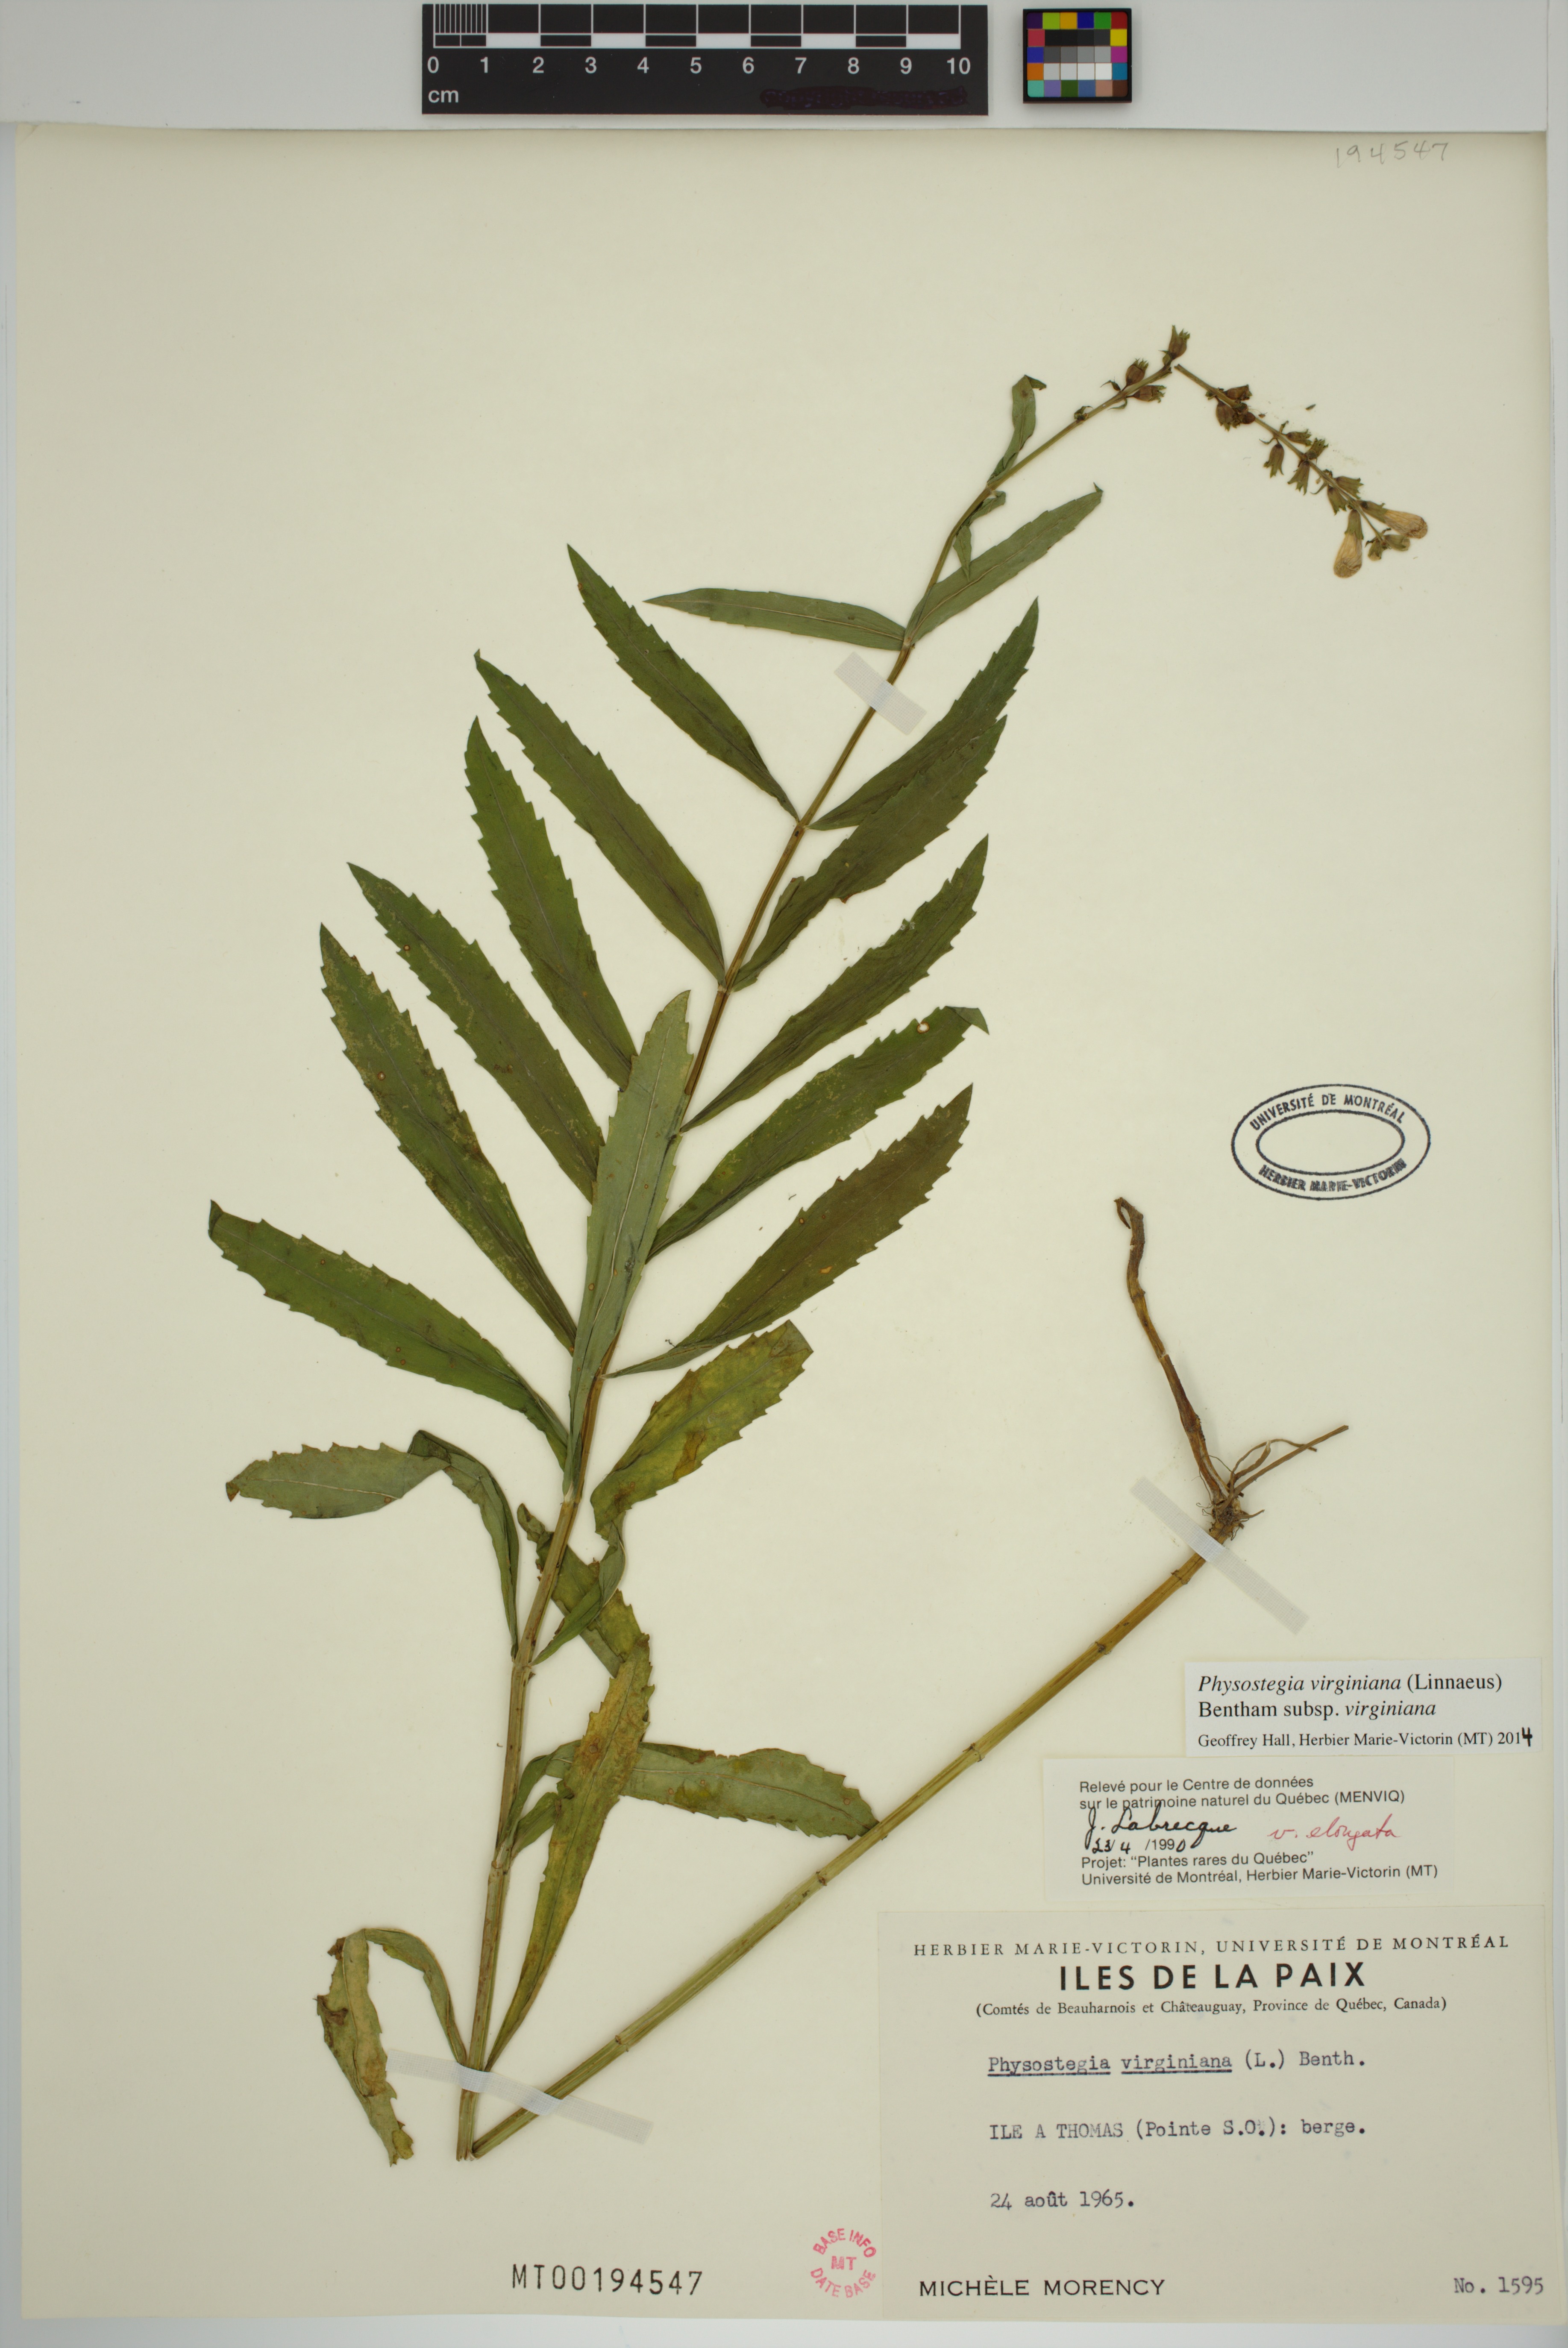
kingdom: Plantae
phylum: Tracheophyta
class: Magnoliopsida
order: Lamiales
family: Lamiaceae
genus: Physostegia
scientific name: Physostegia virginiana
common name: Obedient-plant
